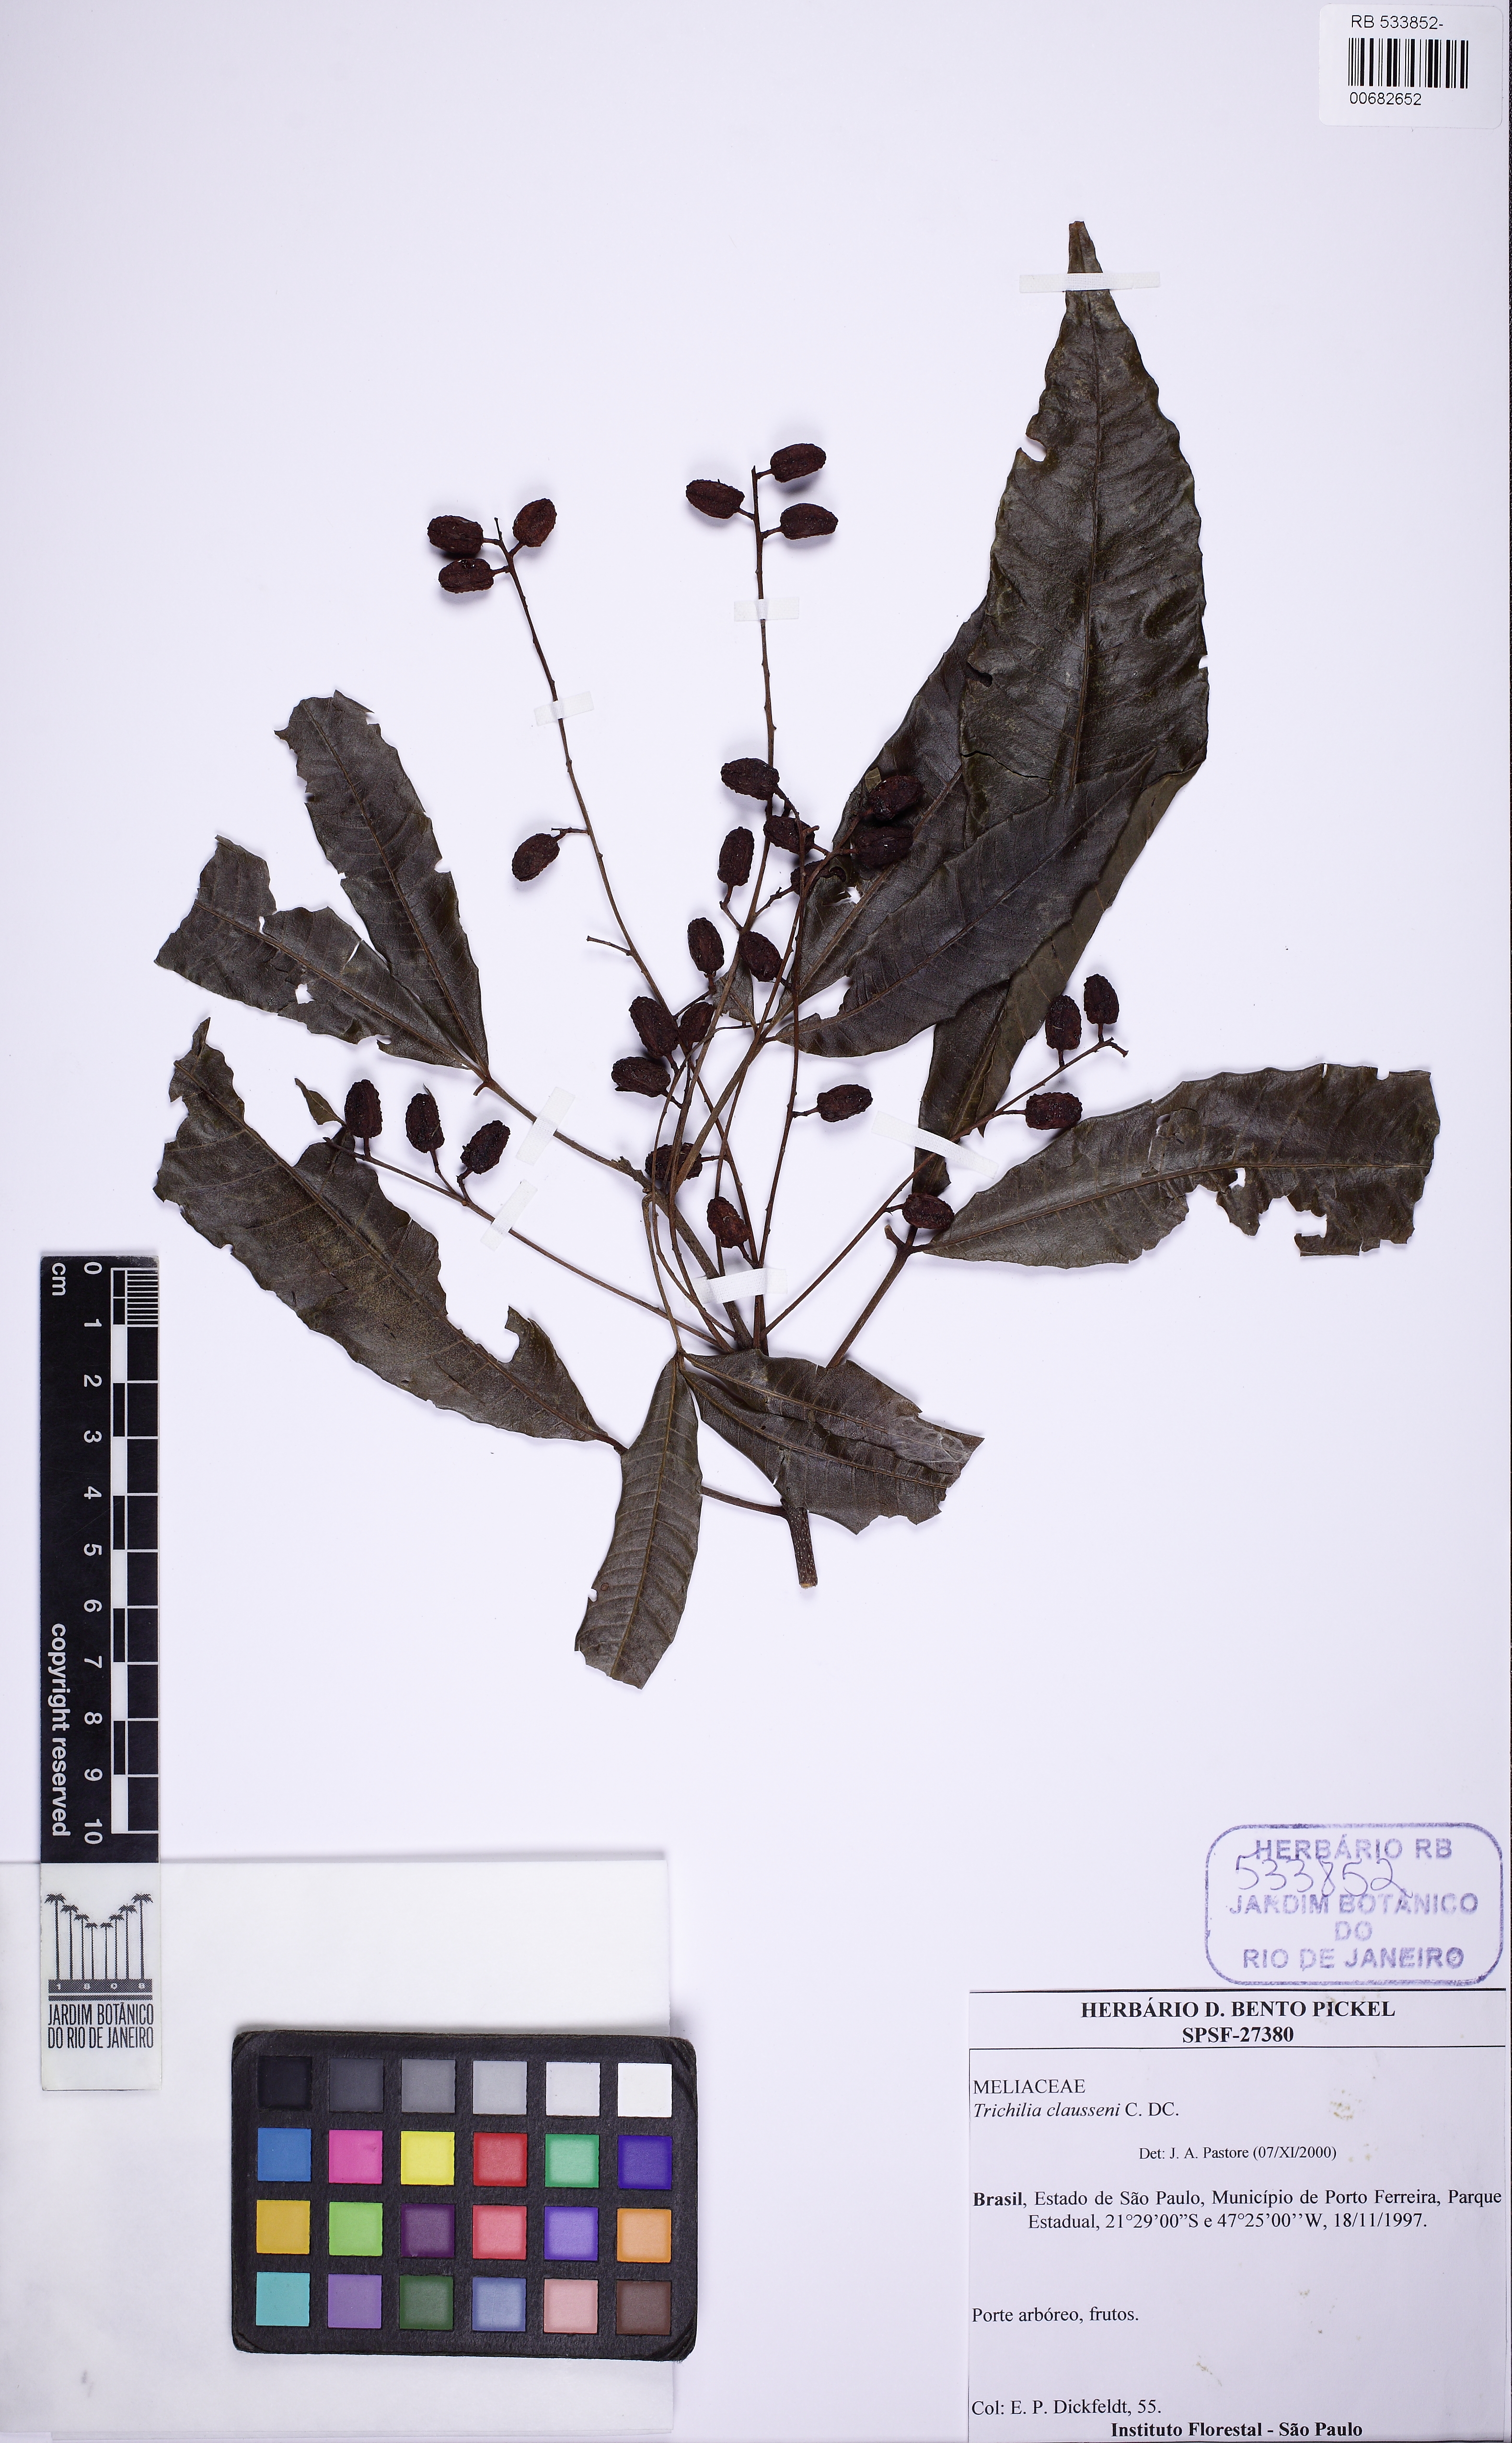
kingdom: Plantae
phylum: Tracheophyta
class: Magnoliopsida
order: Sapindales
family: Meliaceae
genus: Trichilia
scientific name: Trichilia claussenii
